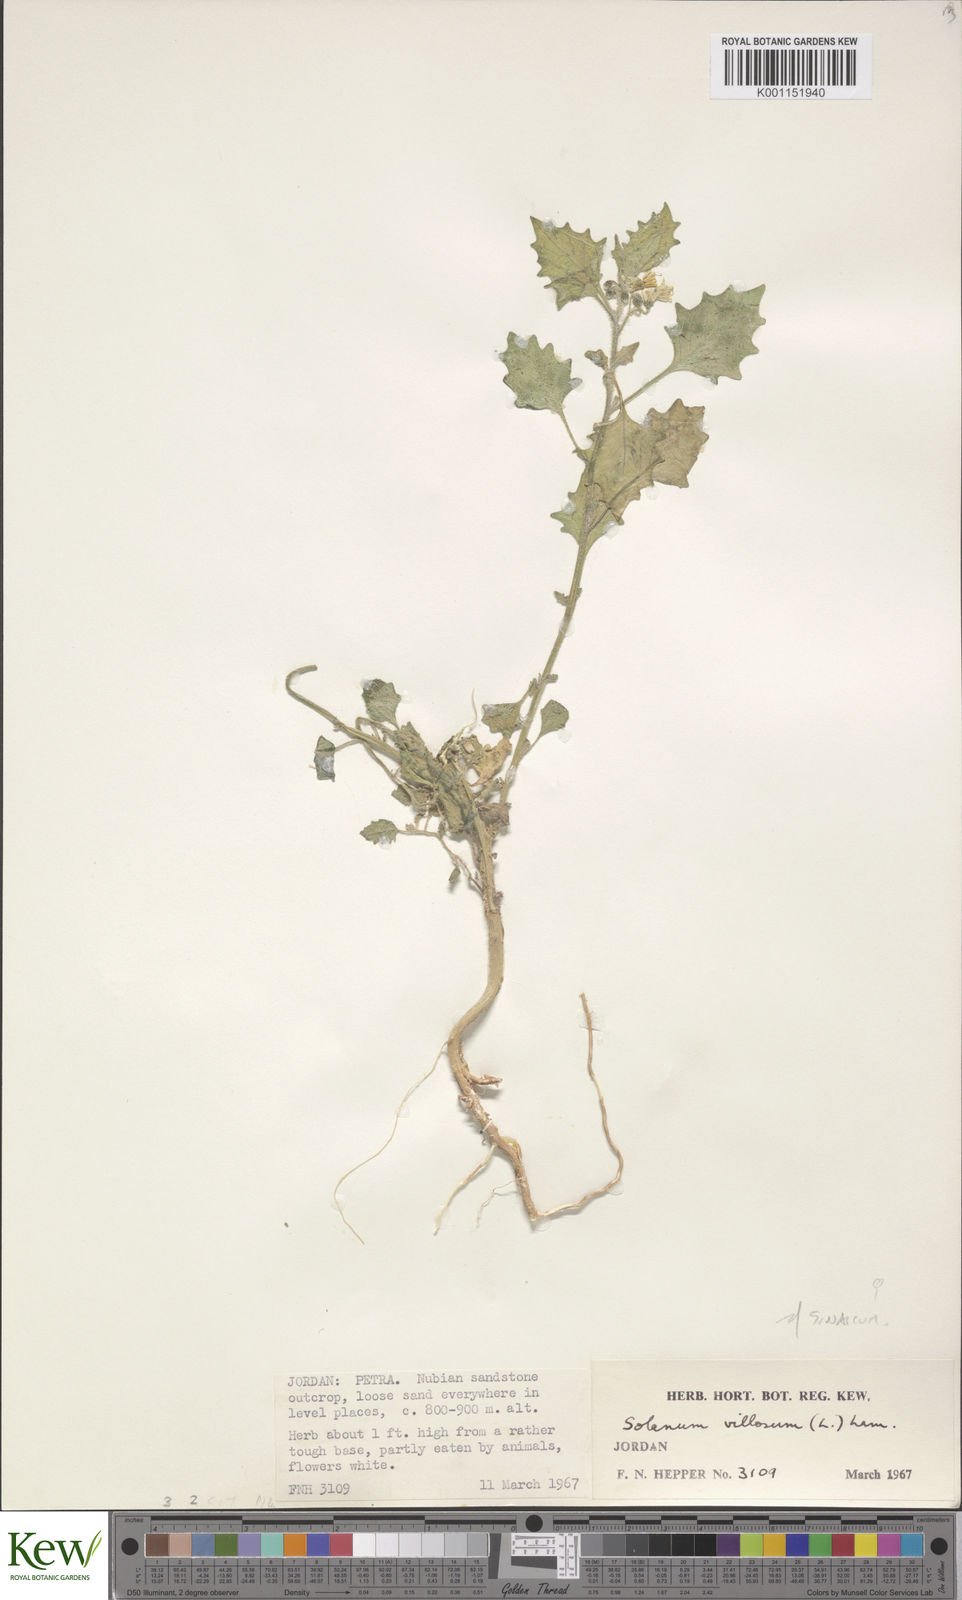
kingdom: Plantae
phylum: Tracheophyta
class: Magnoliopsida
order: Solanales
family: Solanaceae
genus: Solanum
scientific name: Solanum villosum
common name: Red nightshade
